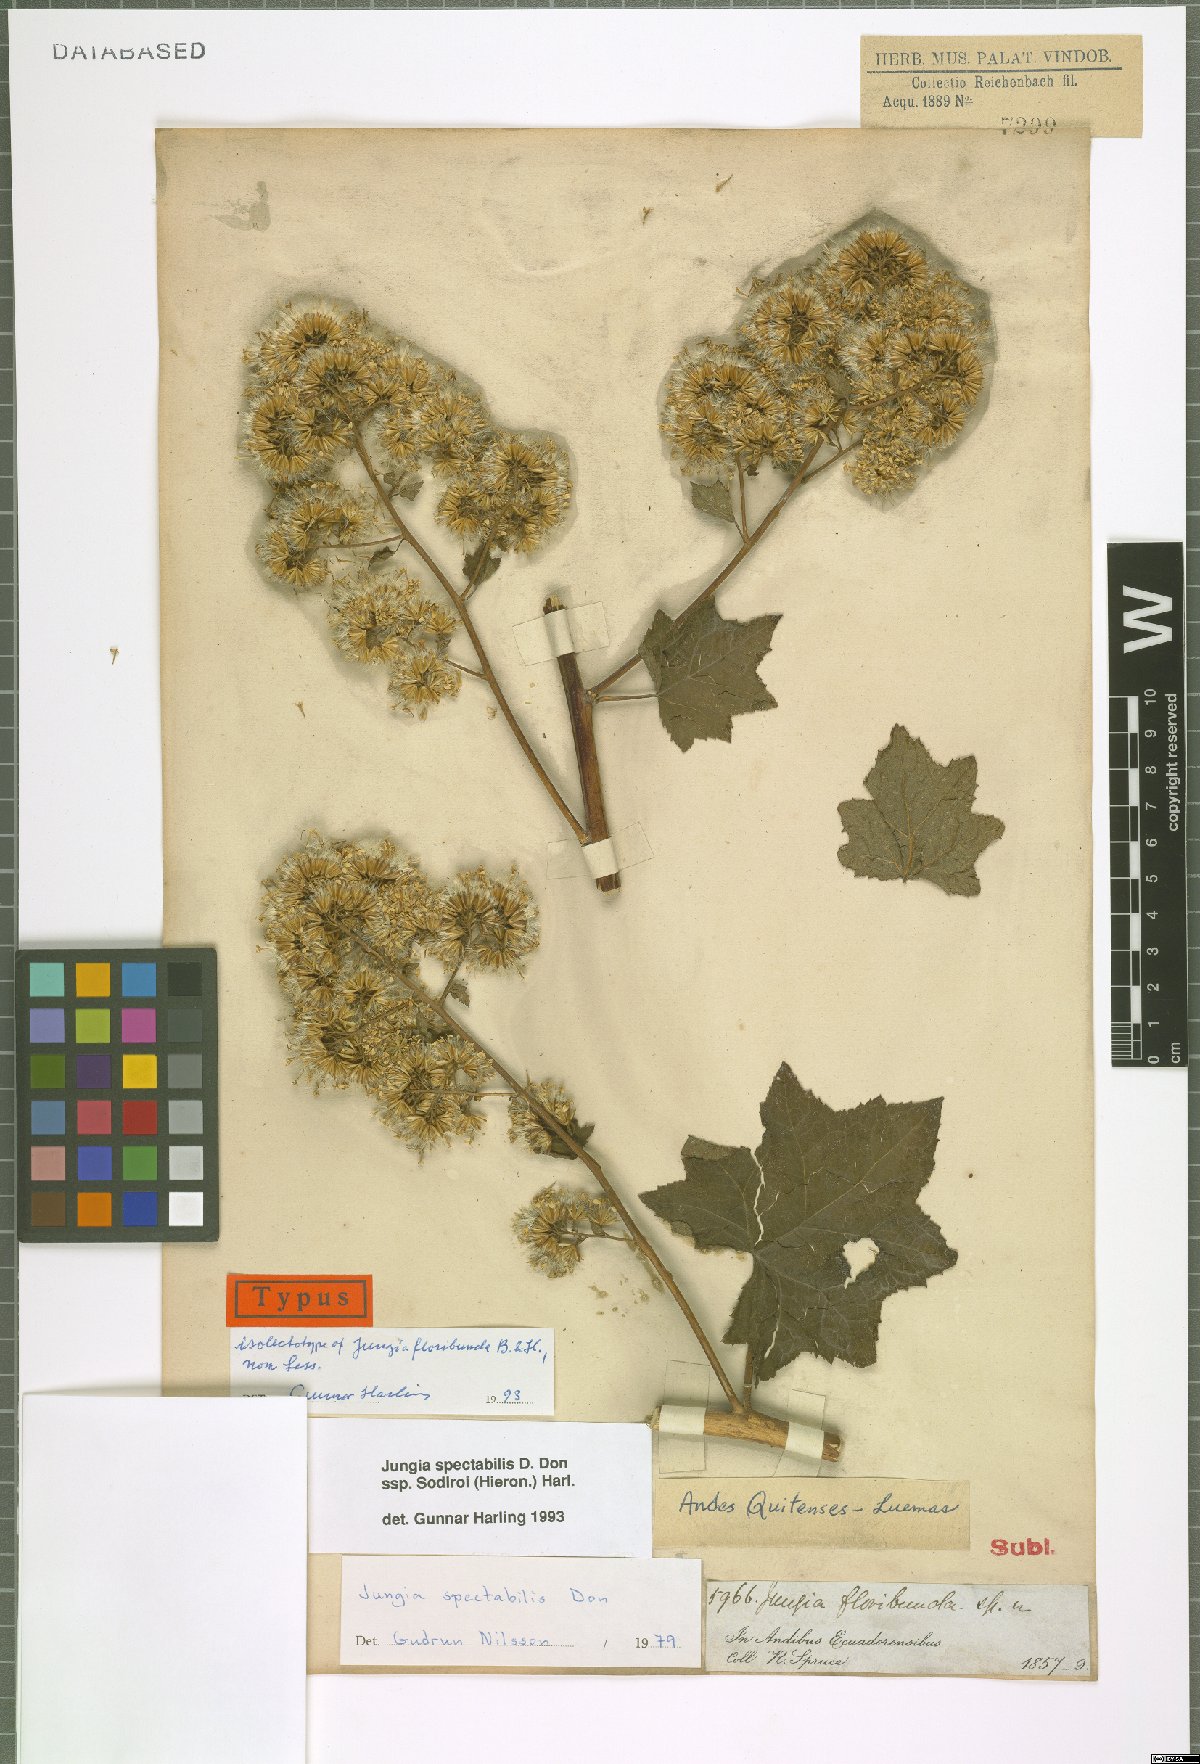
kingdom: Plantae
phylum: Tracheophyta
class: Magnoliopsida
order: Asterales
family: Asteraceae
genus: Jungia
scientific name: Jungia spectabilis
